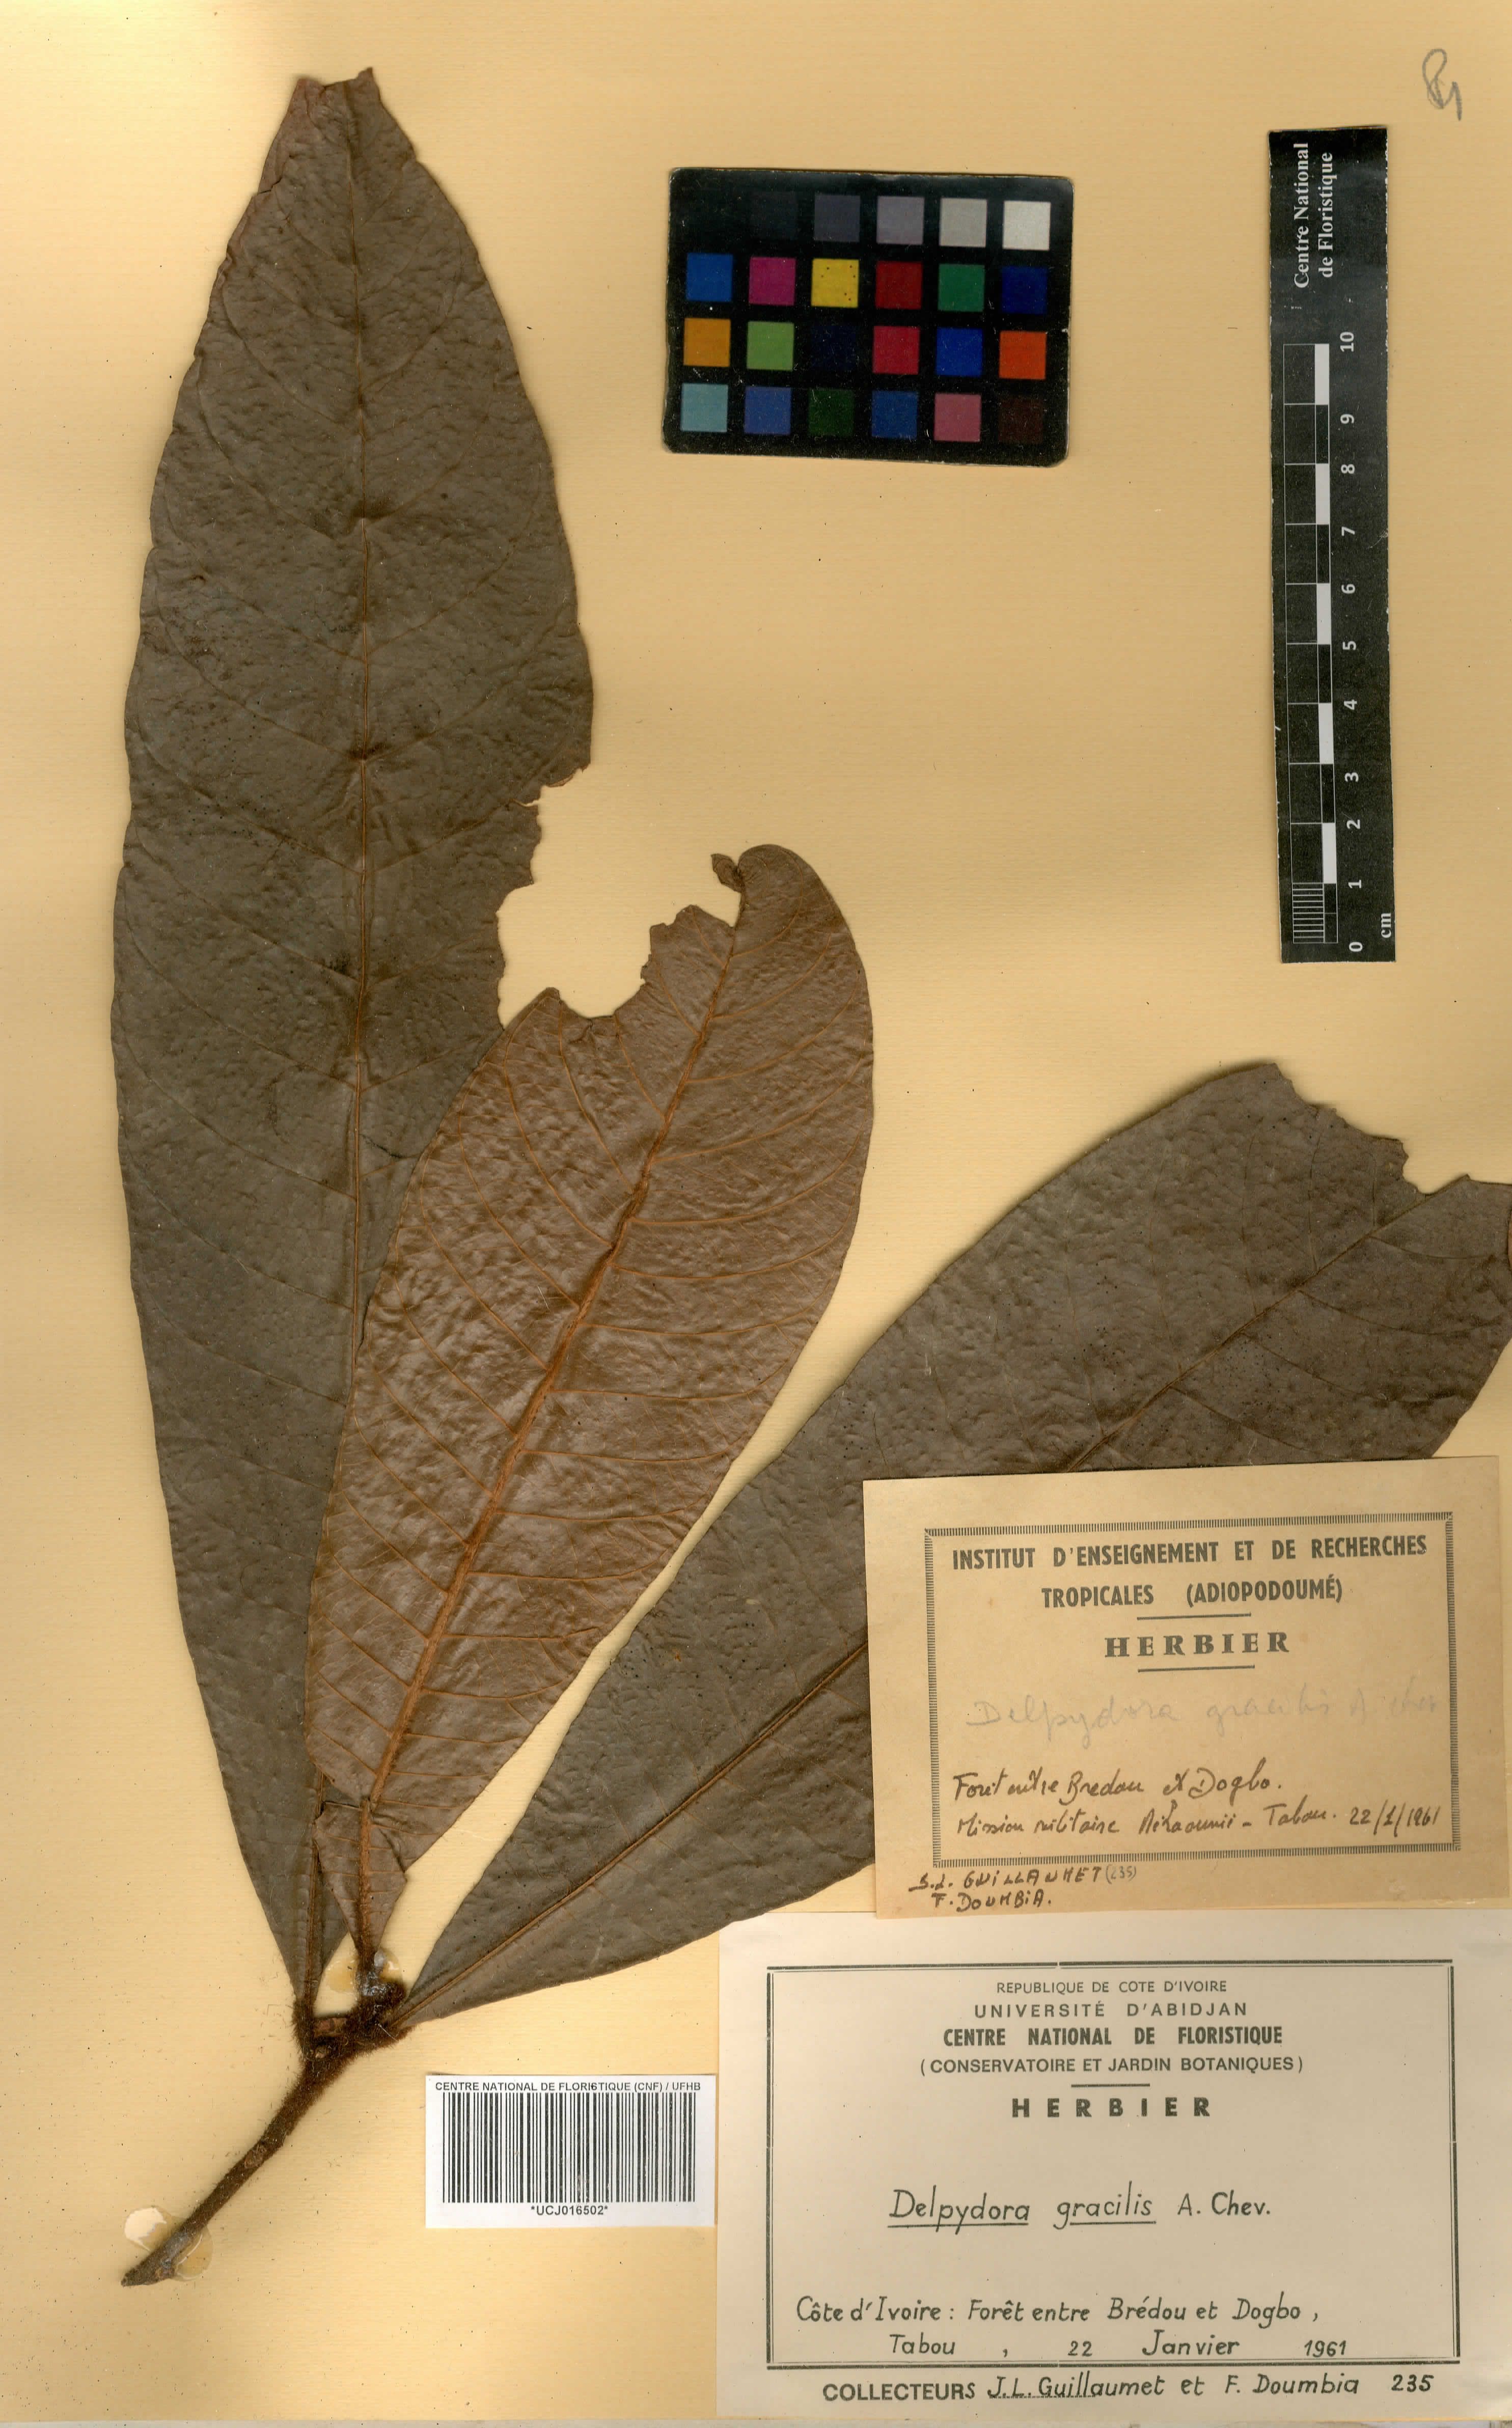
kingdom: Plantae
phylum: Tracheophyta
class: Magnoliopsida
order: Ericales
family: Sapotaceae
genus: Delpydora
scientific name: Delpydora gracilis
